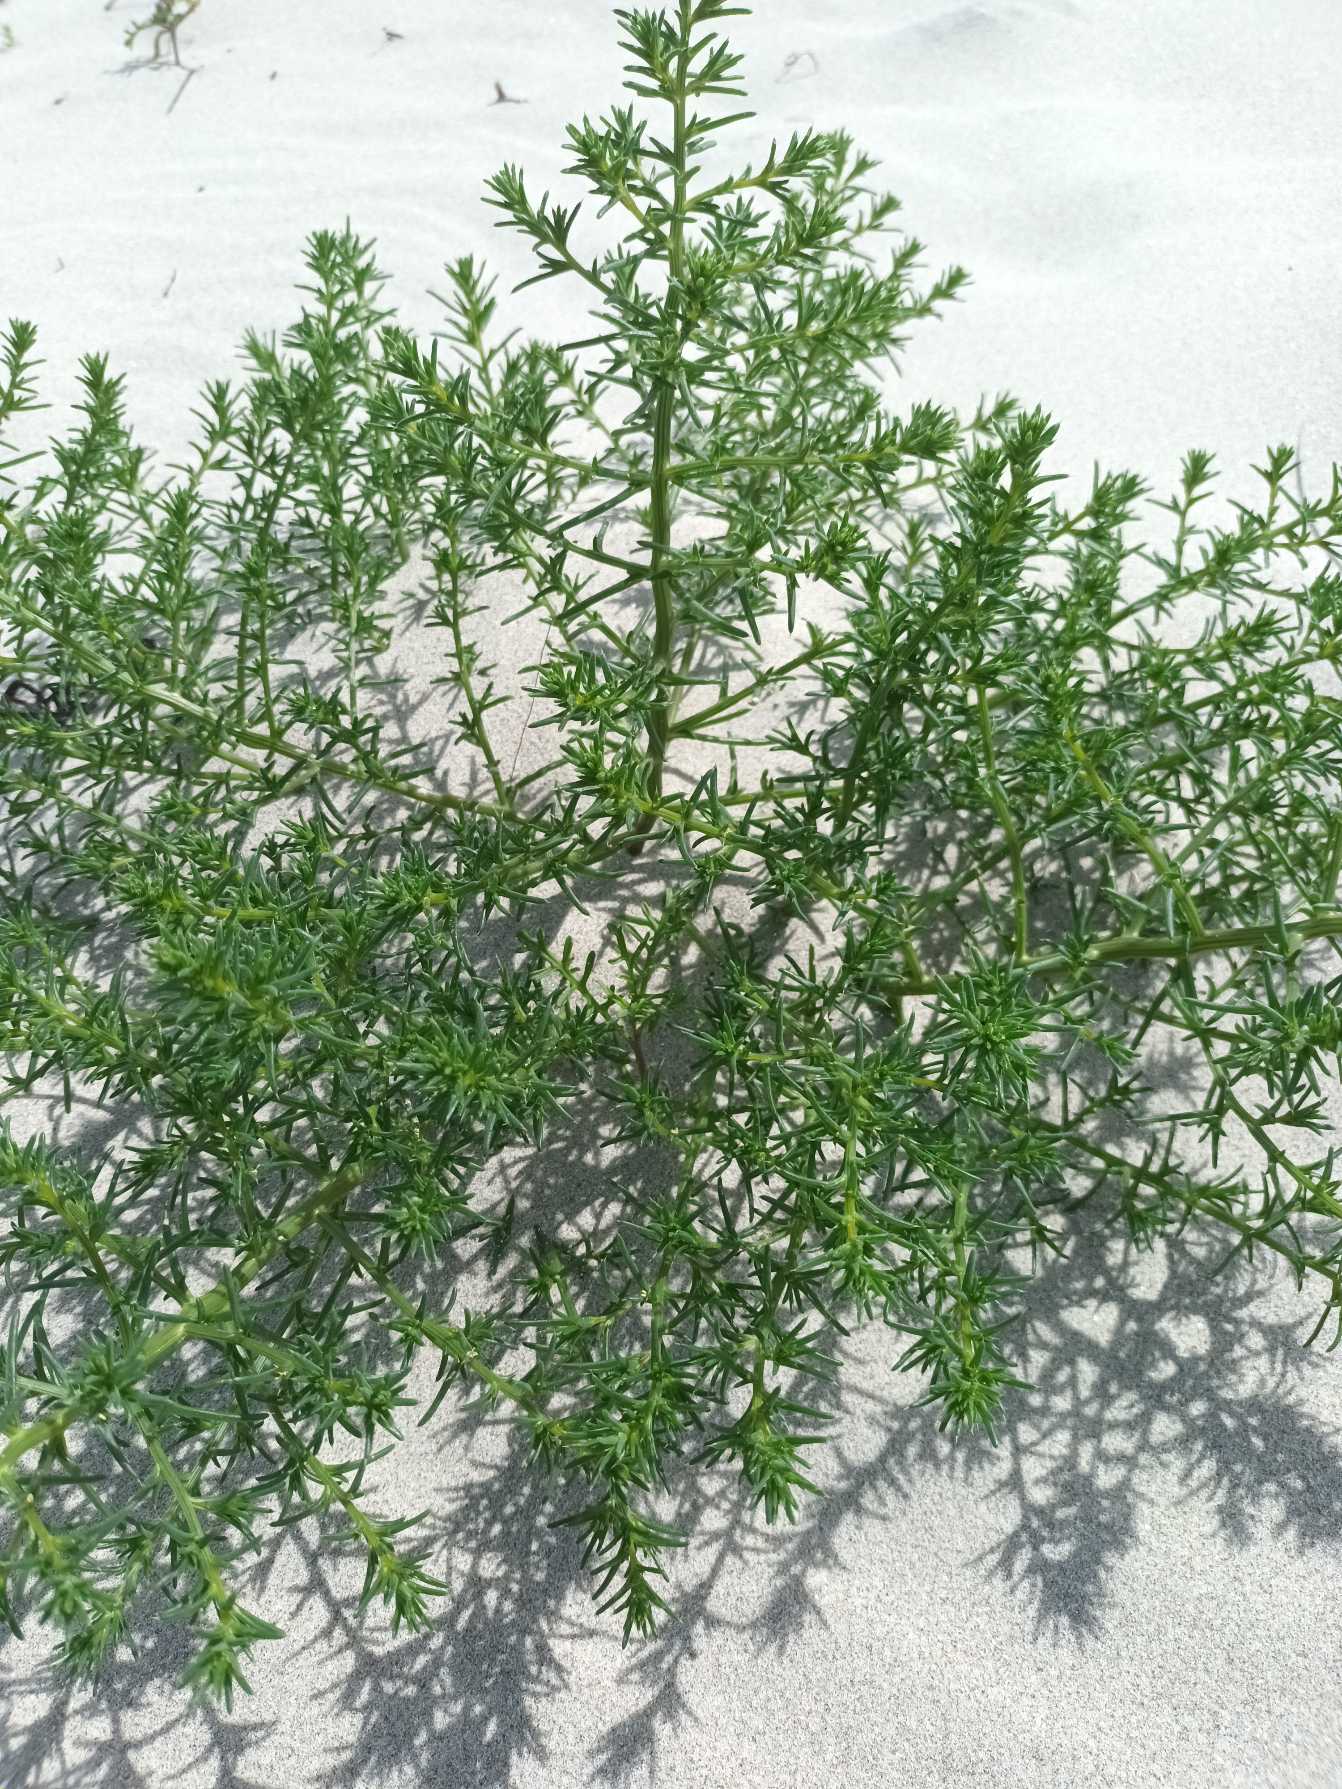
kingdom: Plantae
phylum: Tracheophyta
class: Magnoliopsida
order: Caryophyllales
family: Amaranthaceae
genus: Salsola
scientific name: Salsola kali
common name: Sodaurt
